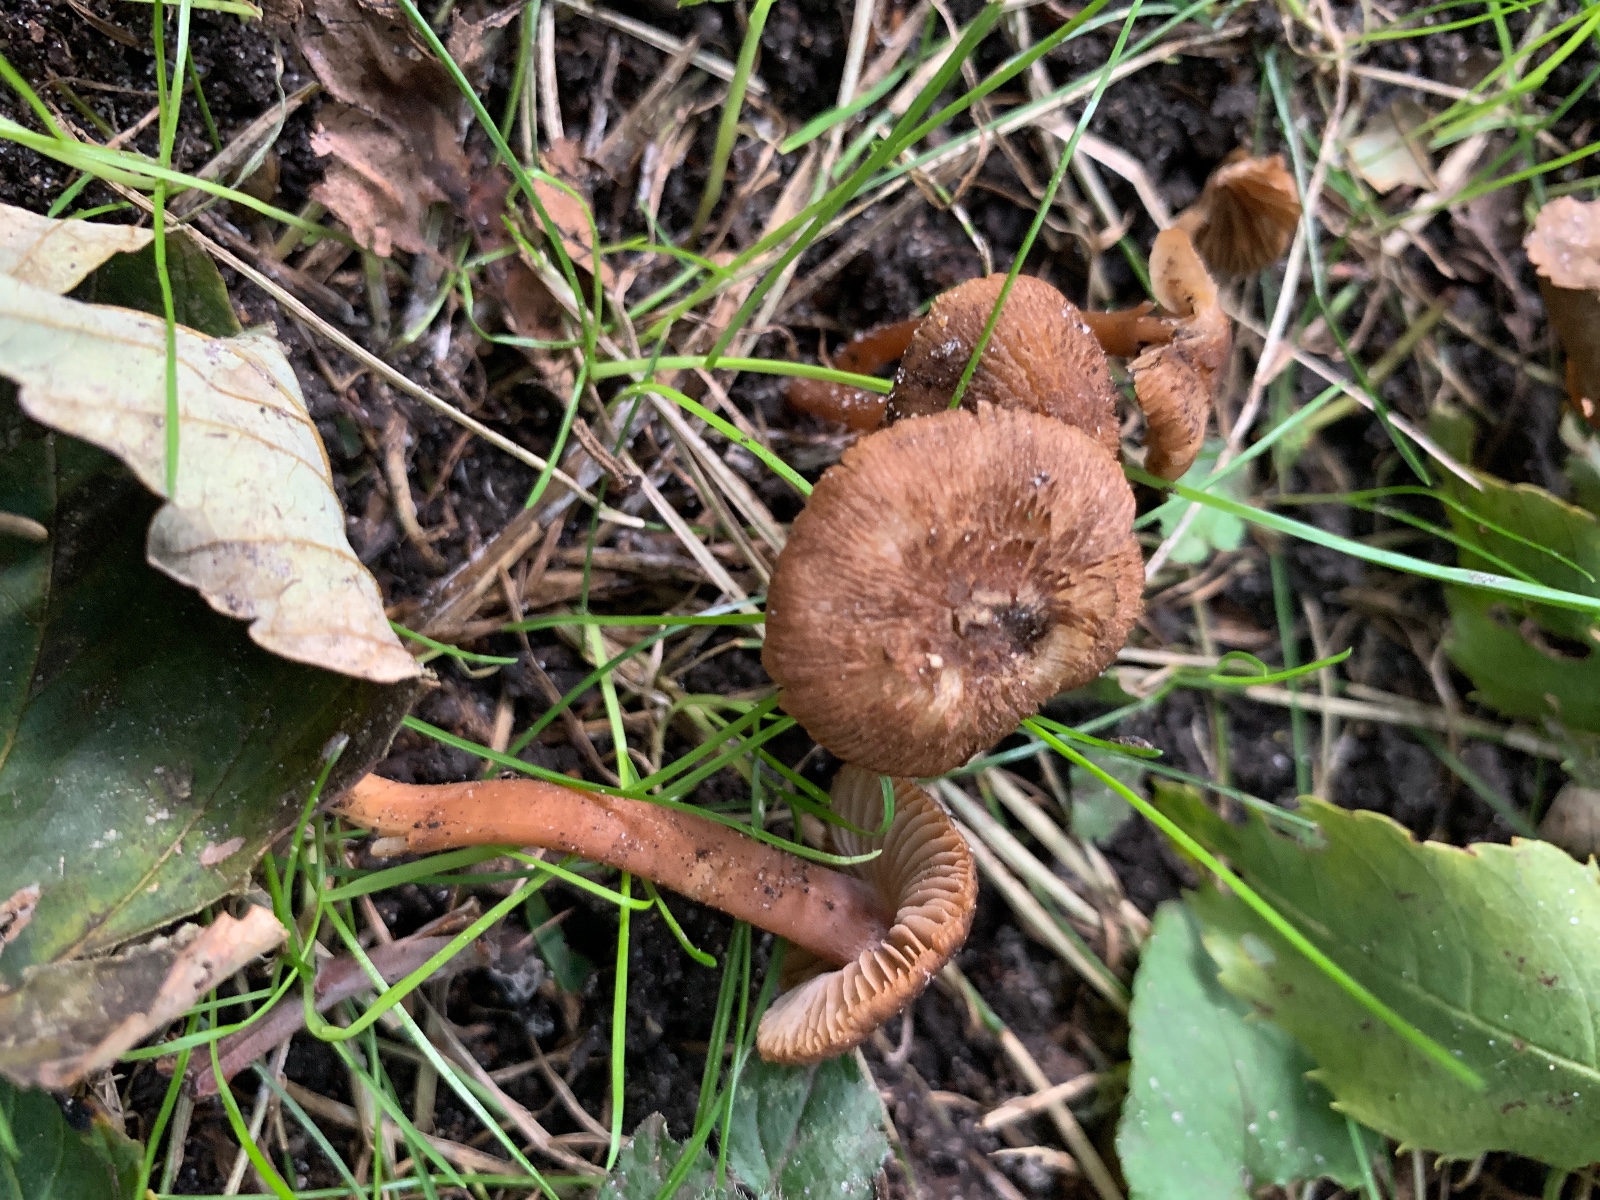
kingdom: Fungi
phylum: Basidiomycota
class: Agaricomycetes
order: Agaricales
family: Inocybaceae
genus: Inocybe
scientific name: Inocybe
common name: trævlhat
